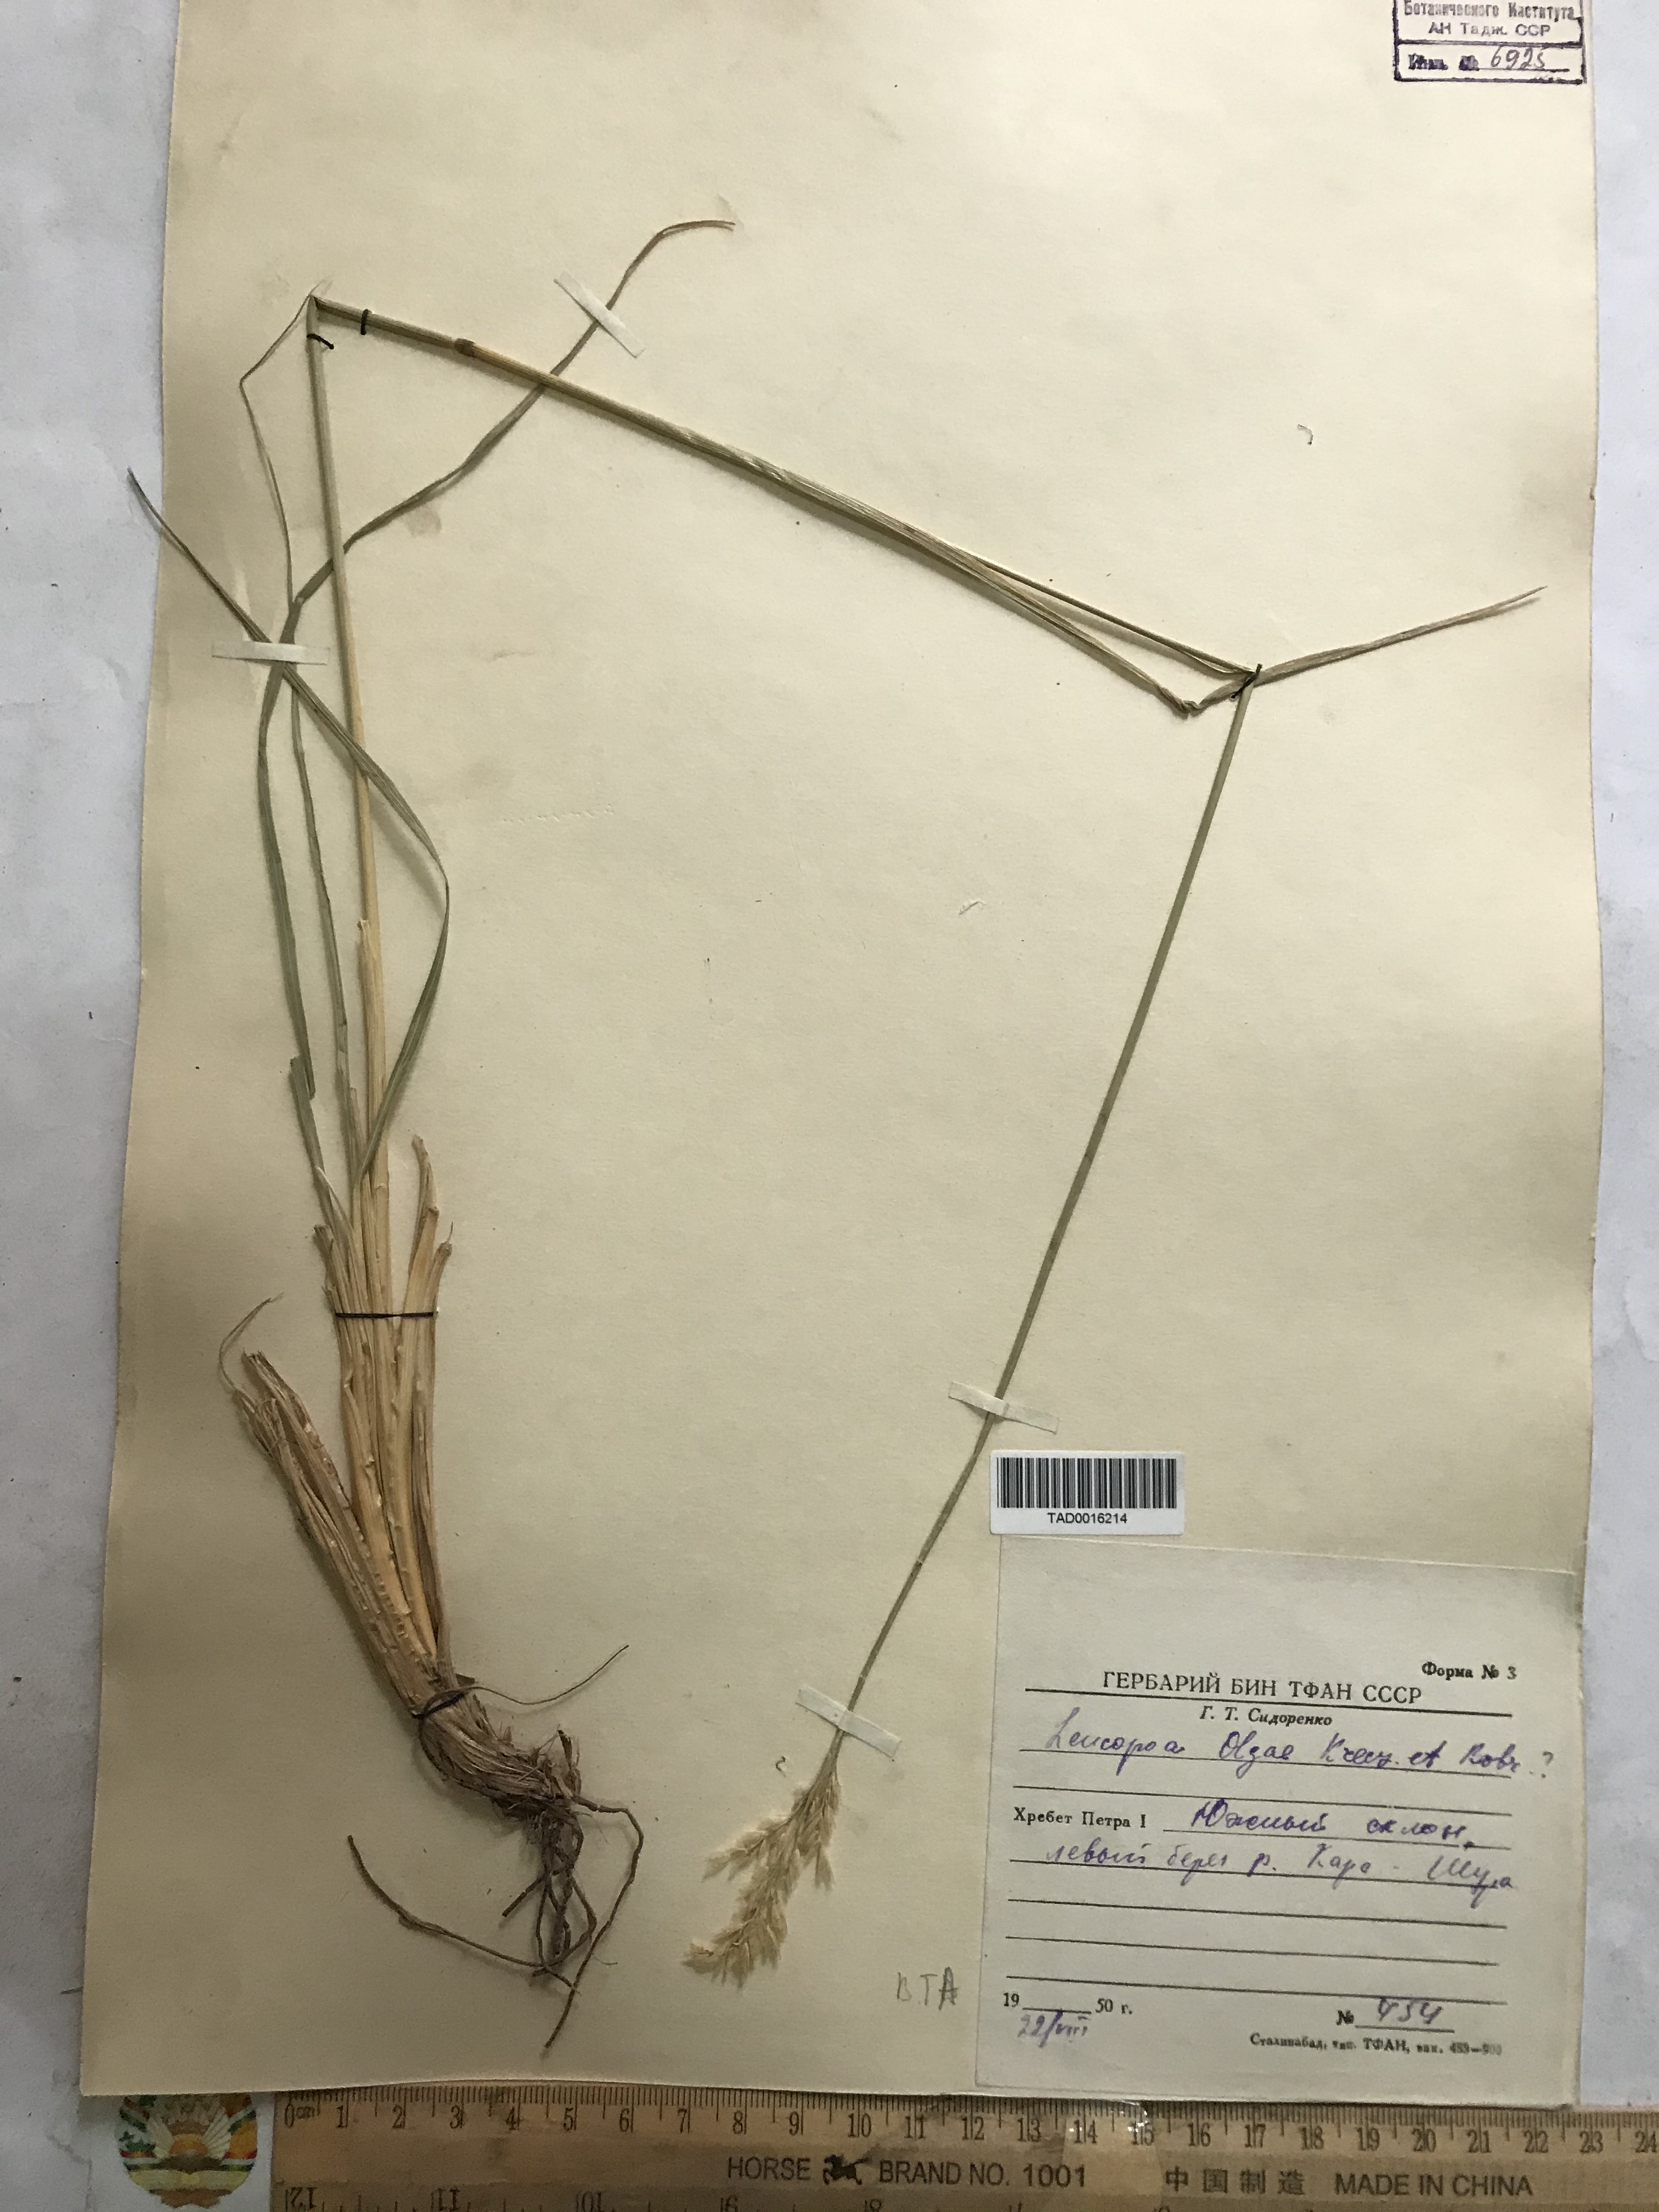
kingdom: Plantae
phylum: Tracheophyta
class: Liliopsida
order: Poales
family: Poaceae
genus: Festuca
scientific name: Festuca olgae
